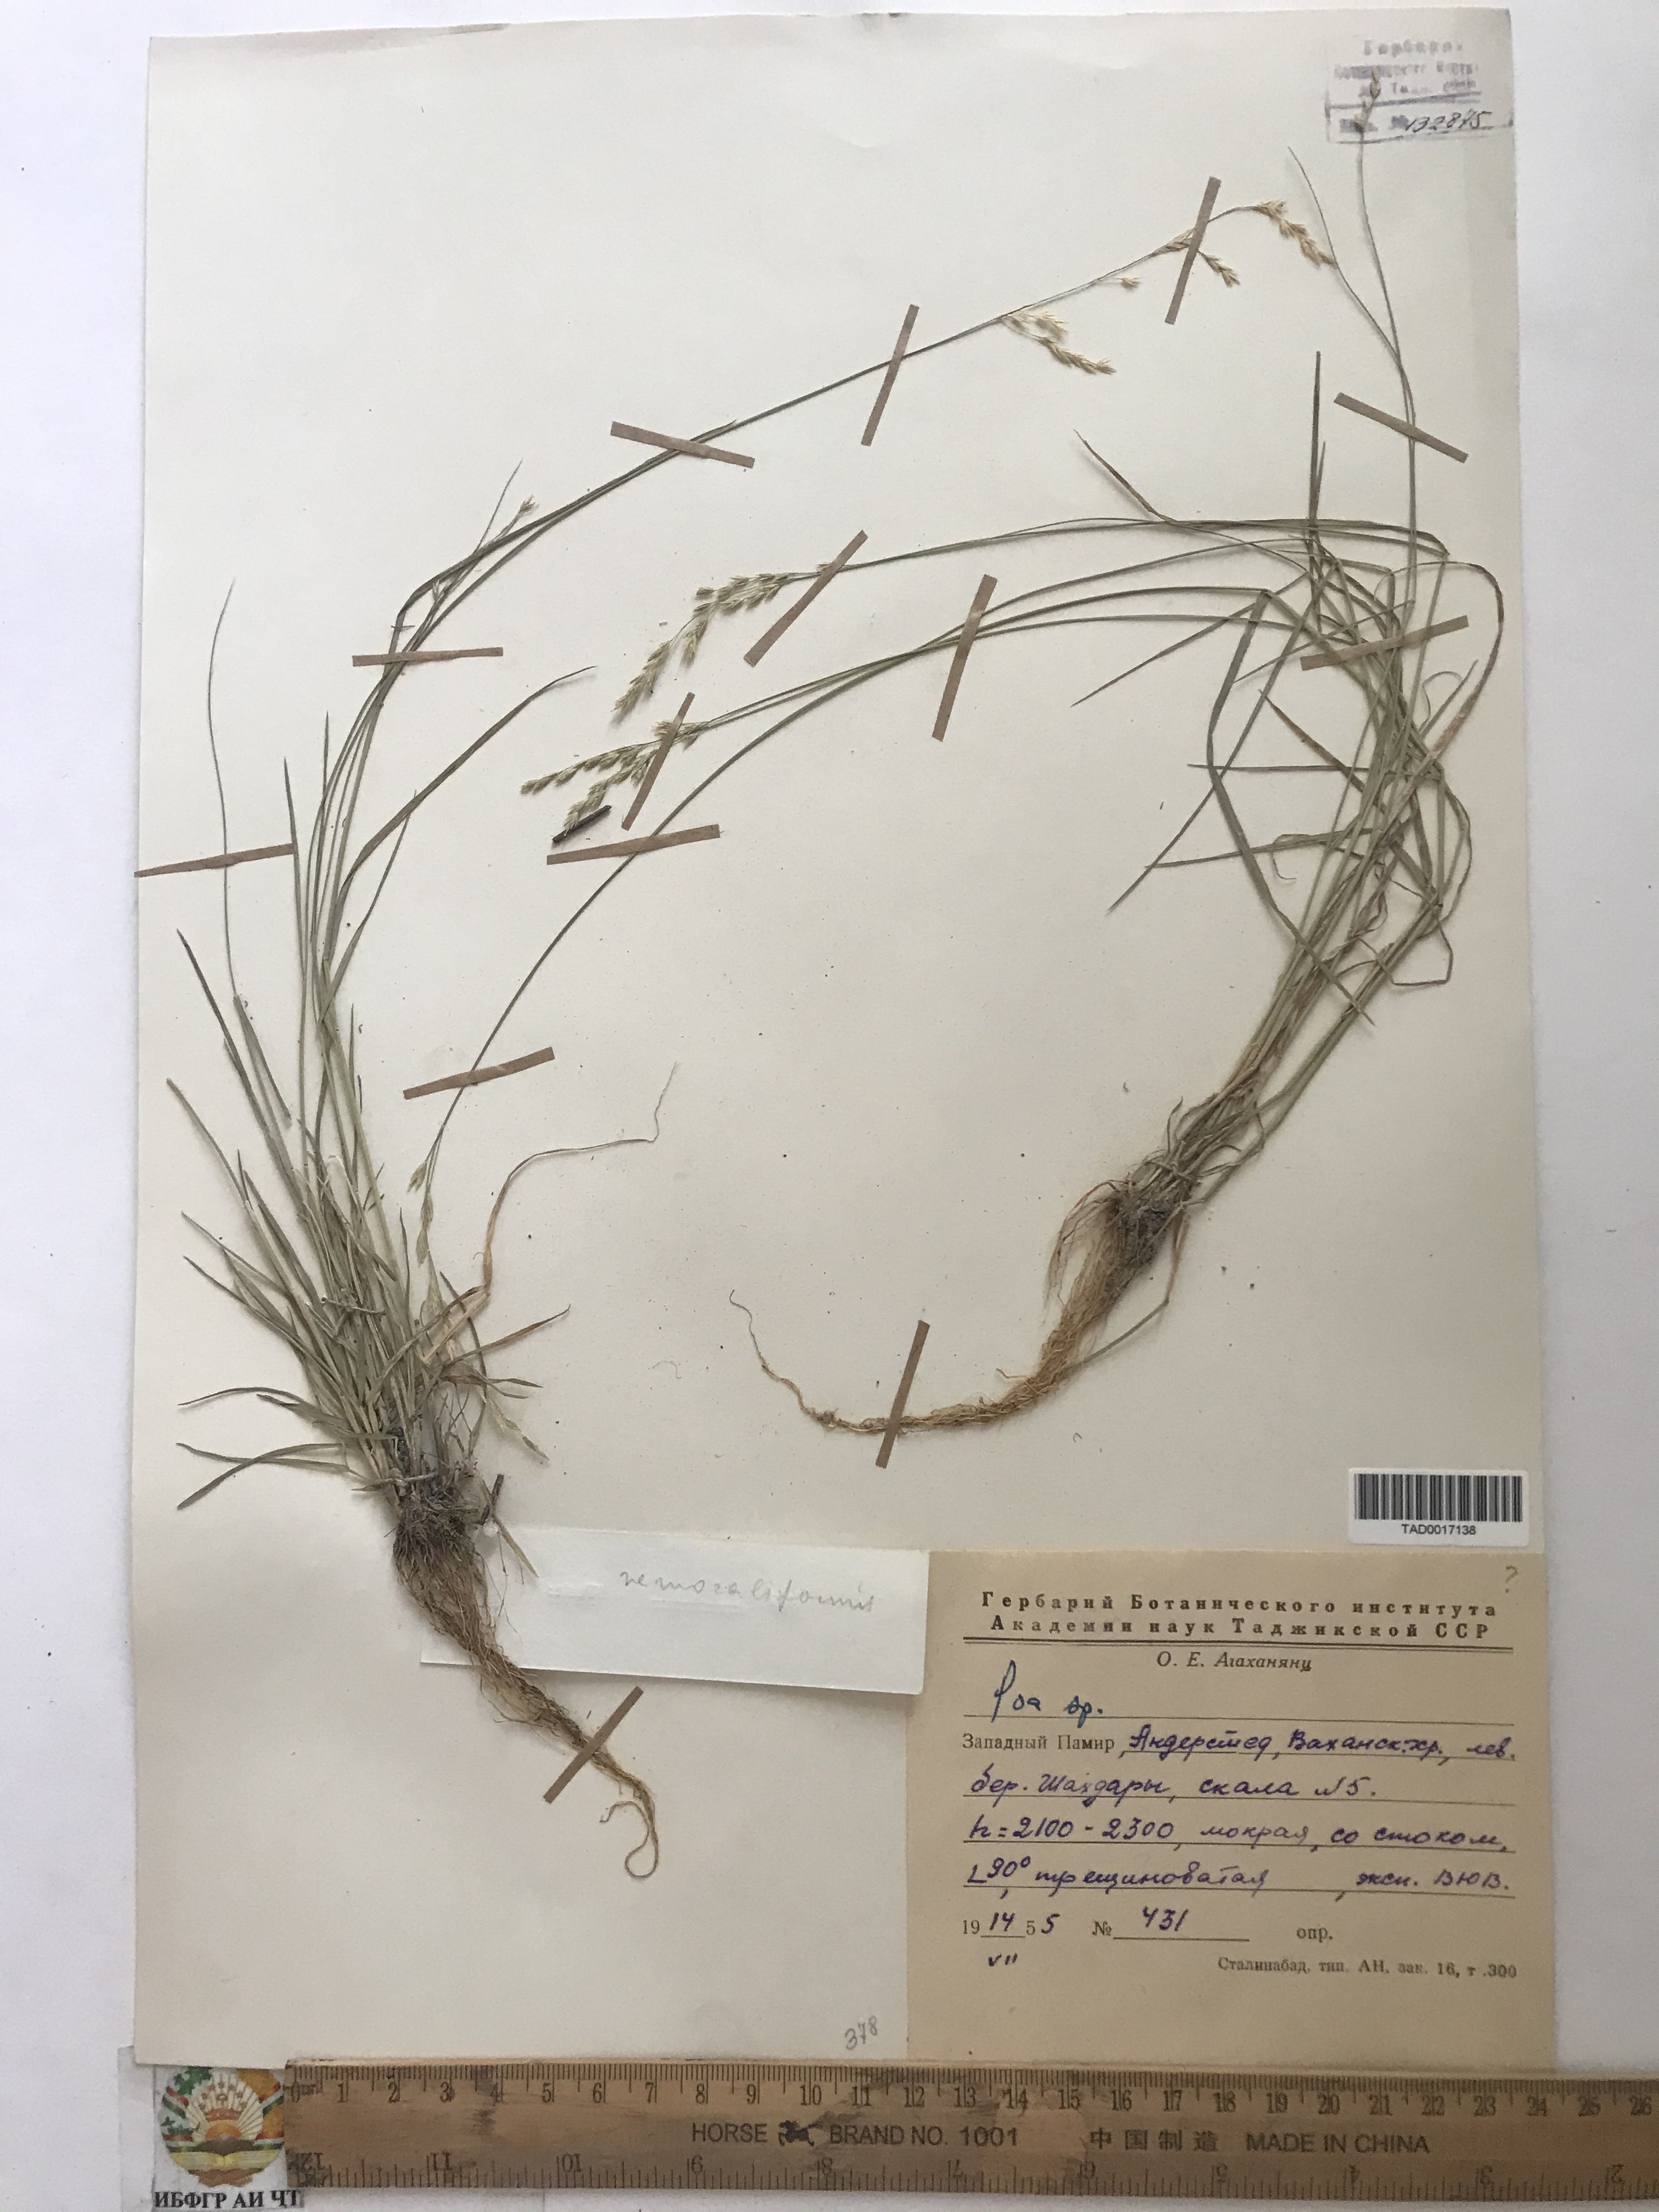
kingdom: Plantae
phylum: Tracheophyta
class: Liliopsida
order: Poales
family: Poaceae
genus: Poa
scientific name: Poa urssulensis
